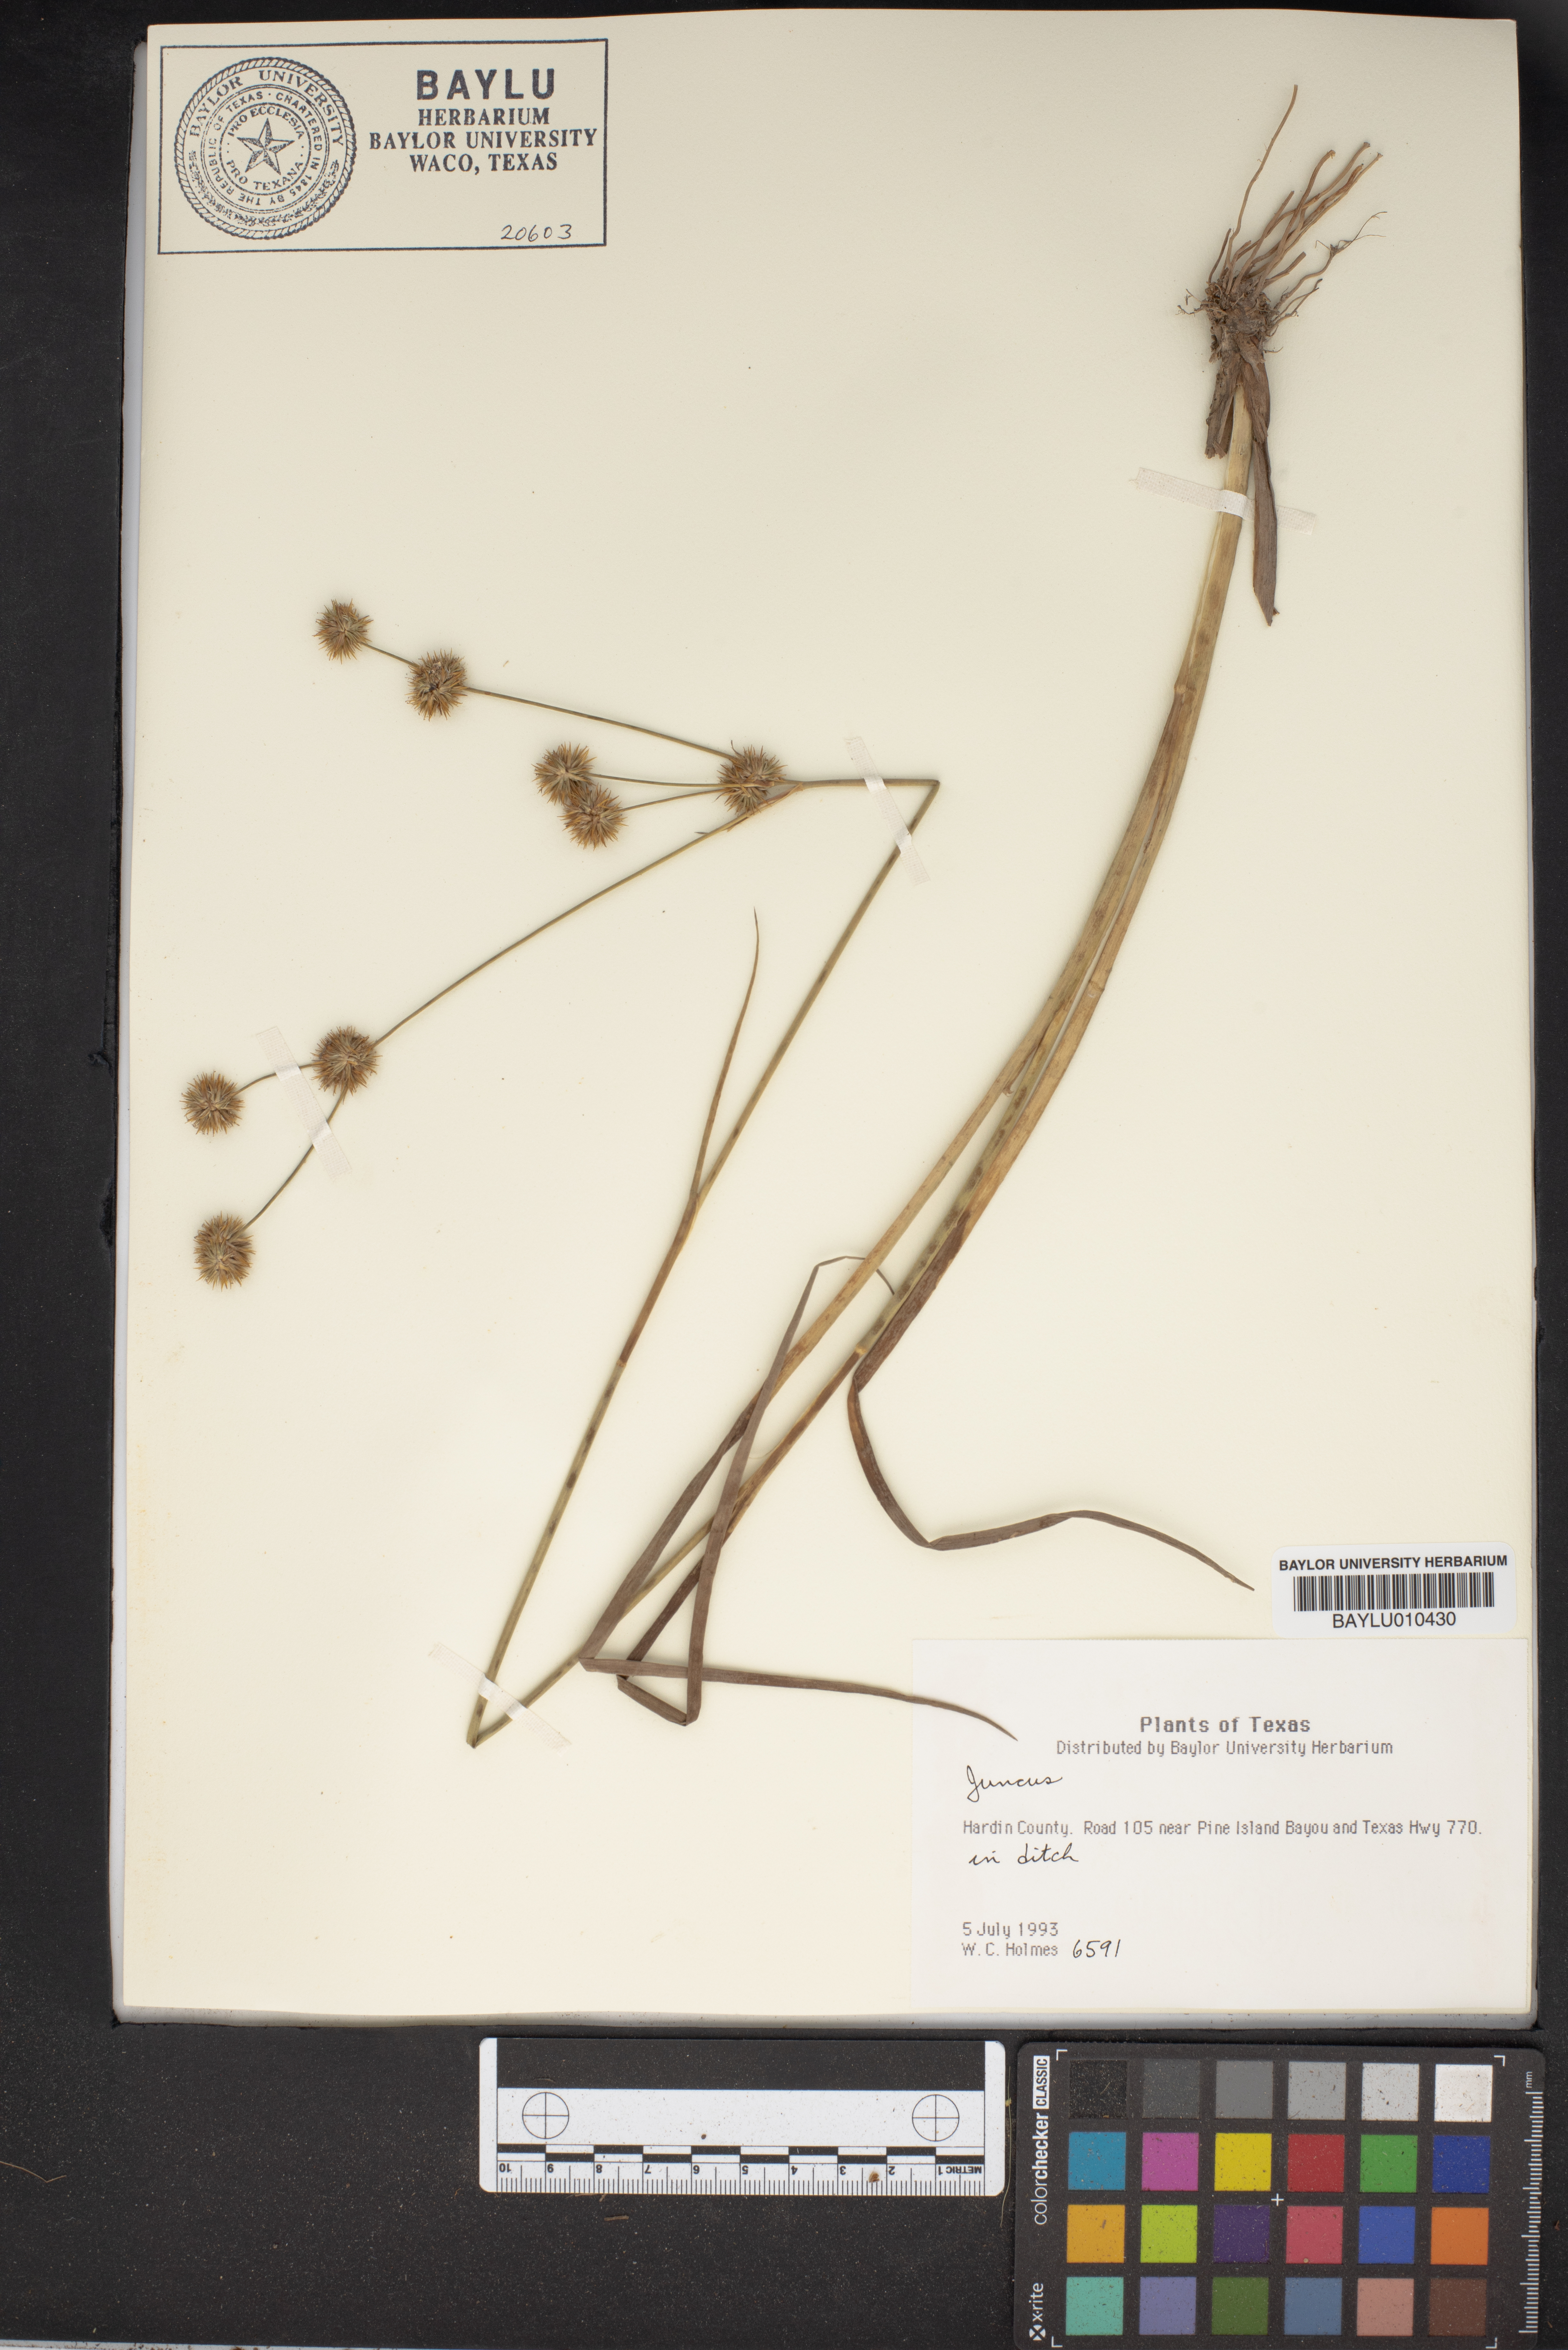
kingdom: Plantae
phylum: Tracheophyta
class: Liliopsida
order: Poales
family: Juncaceae
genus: Juncus
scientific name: Juncus
